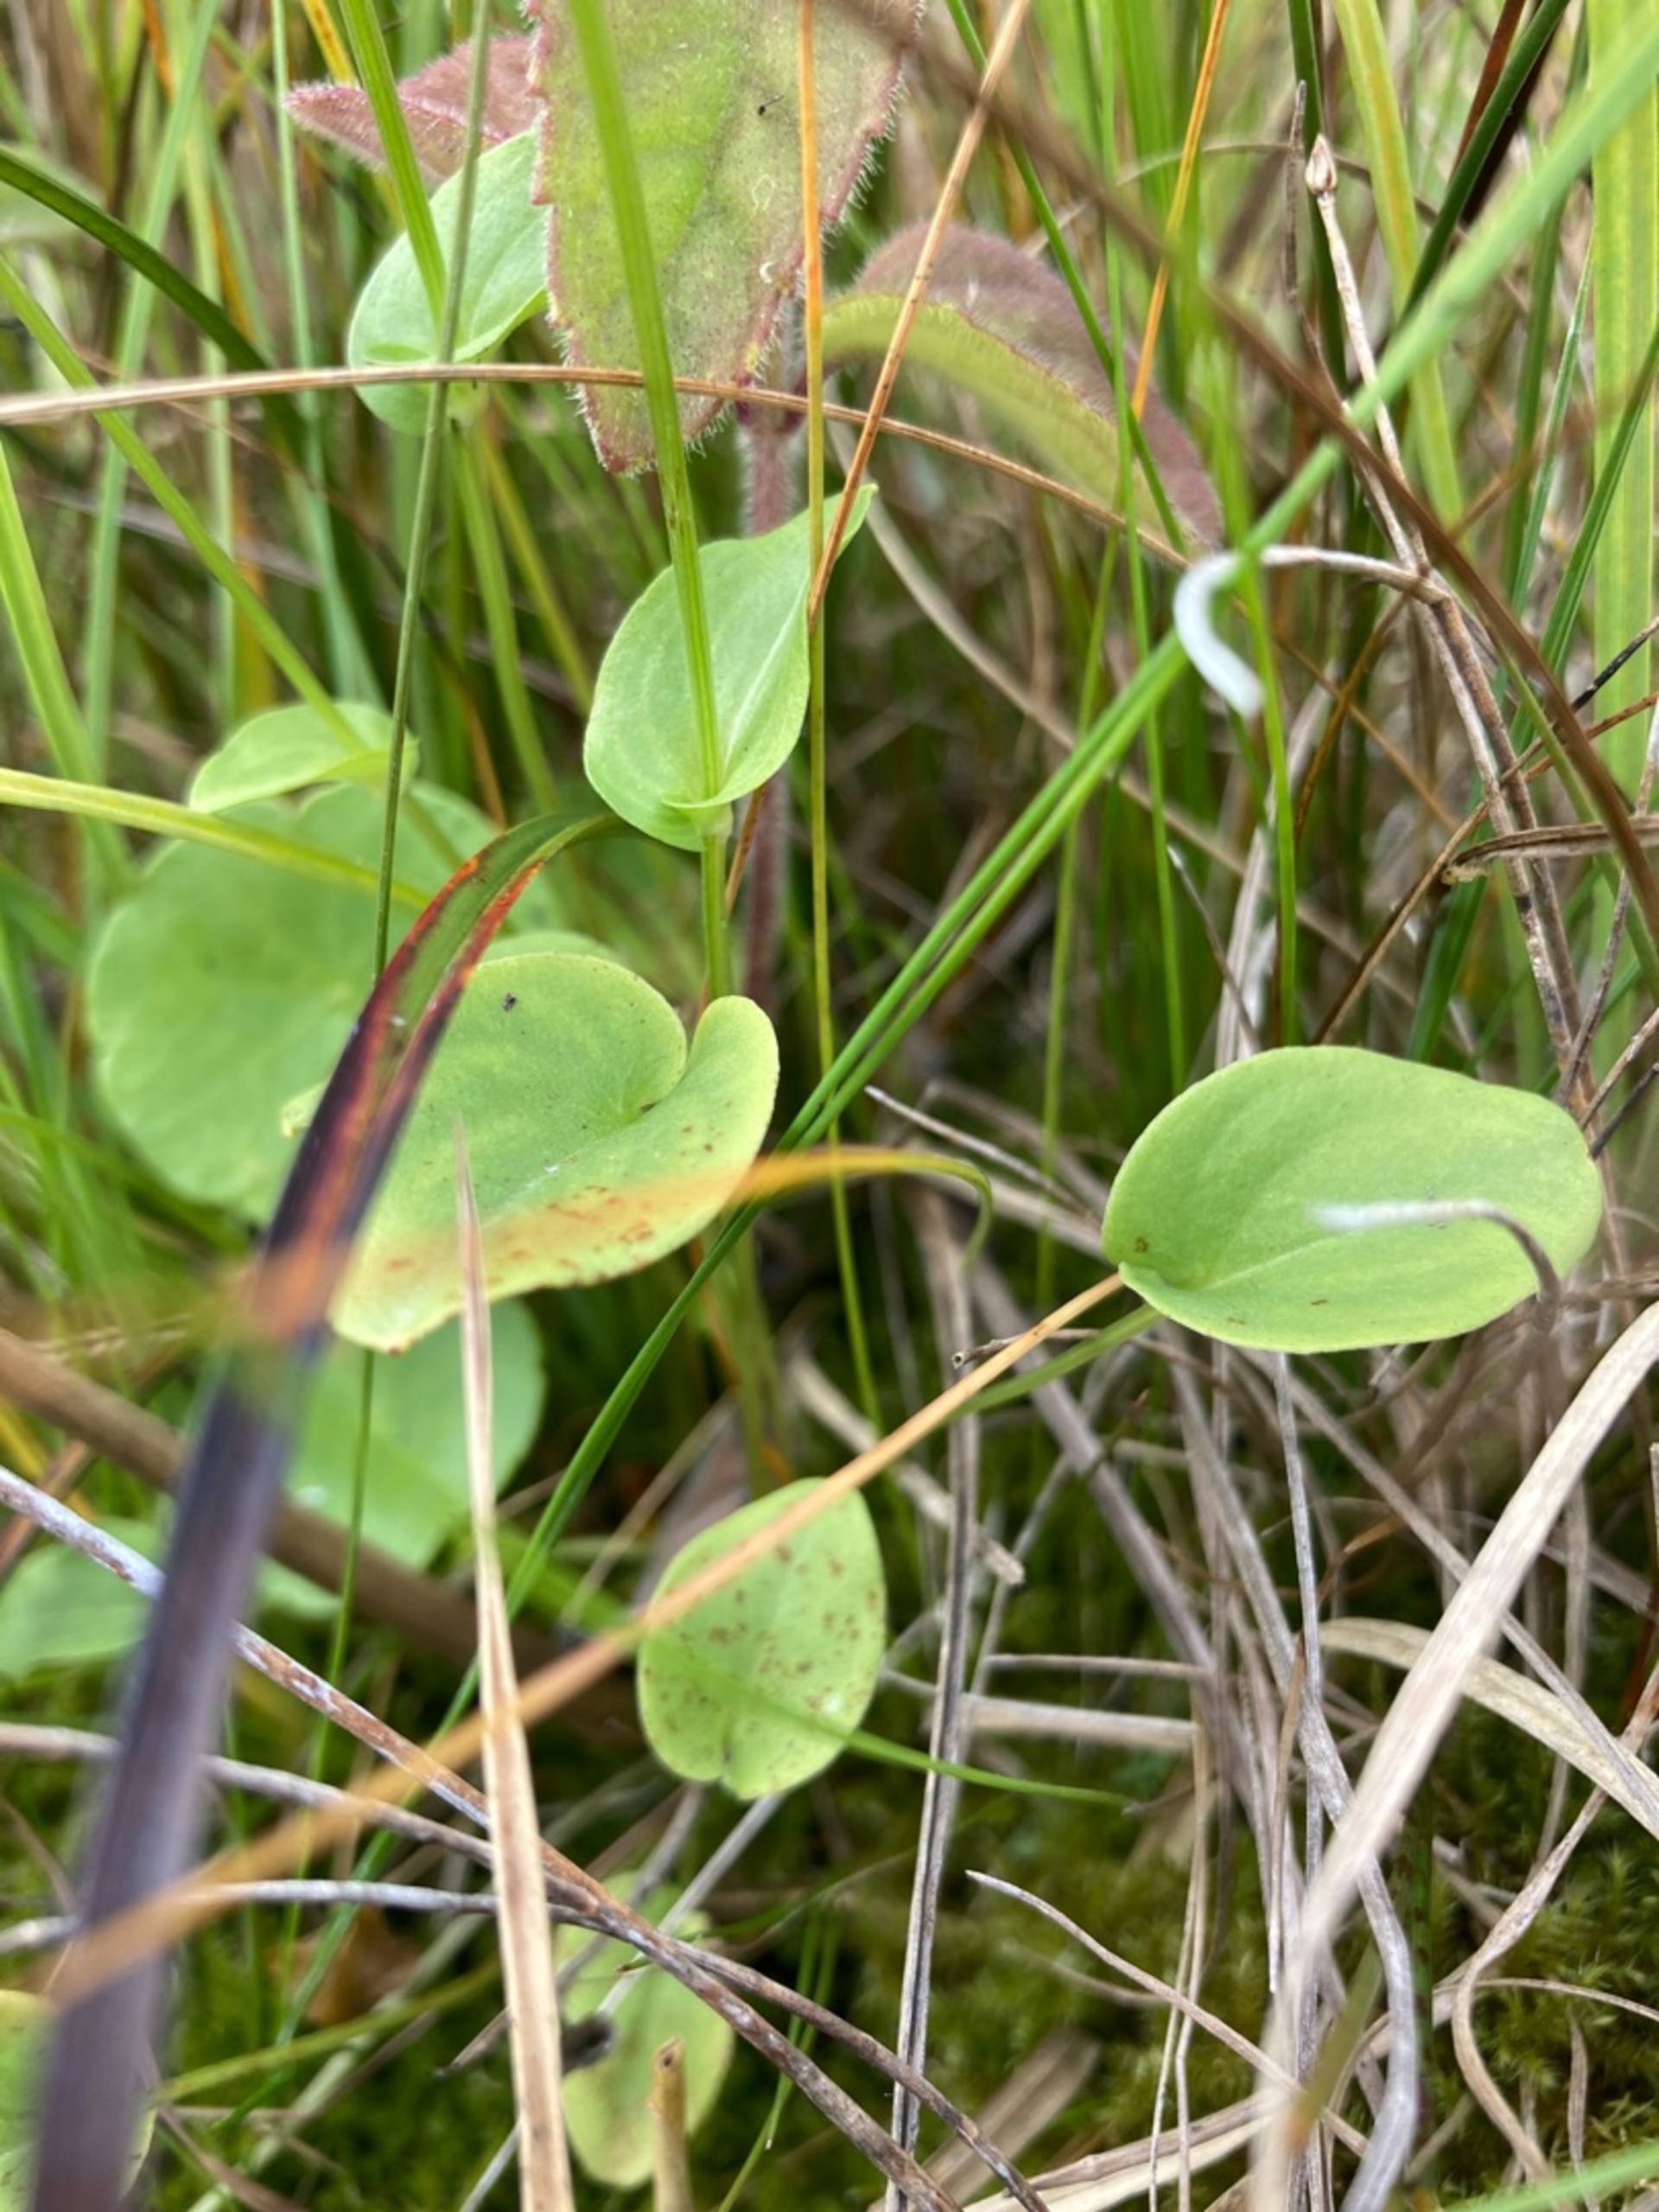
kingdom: Plantae
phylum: Tracheophyta
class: Magnoliopsida
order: Celastrales
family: Parnassiaceae
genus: Parnassia
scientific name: Parnassia palustris
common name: Leverurt
